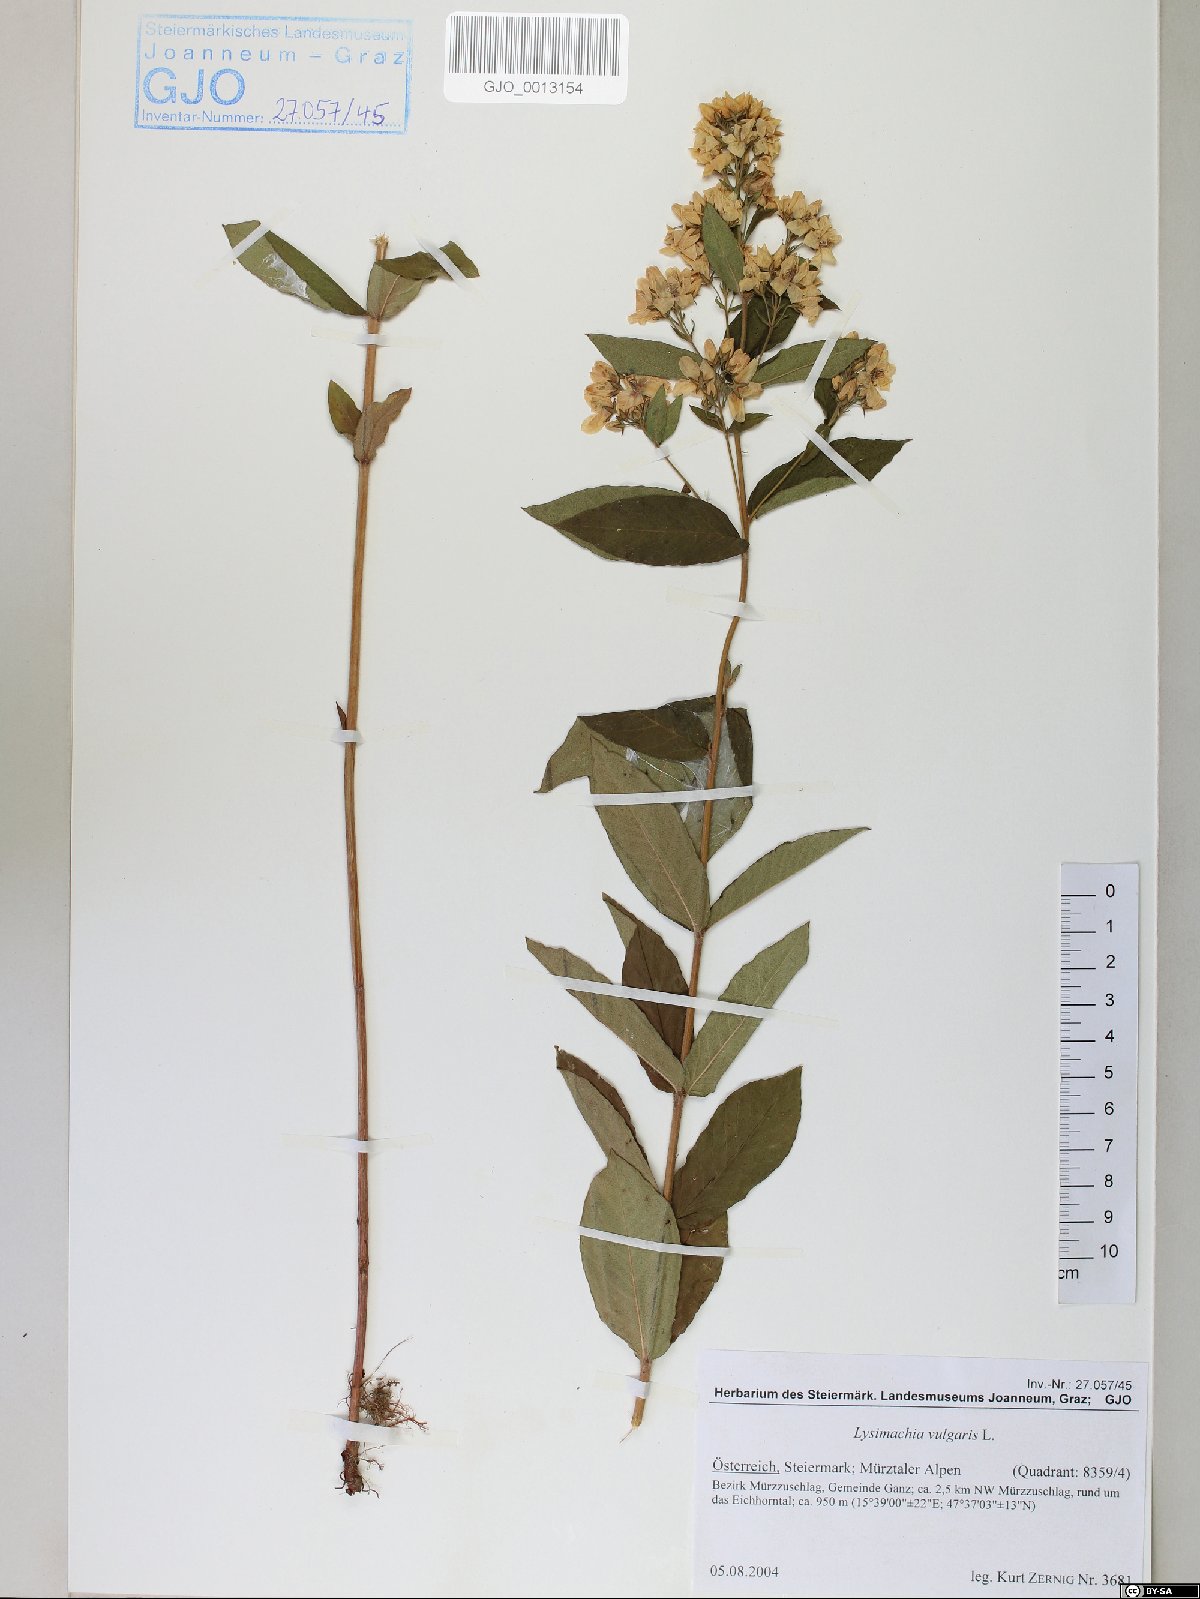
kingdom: Plantae
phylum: Tracheophyta
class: Magnoliopsida
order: Ericales
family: Primulaceae
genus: Lysimachia
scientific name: Lysimachia vulgaris
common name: Yellow loosestrife
